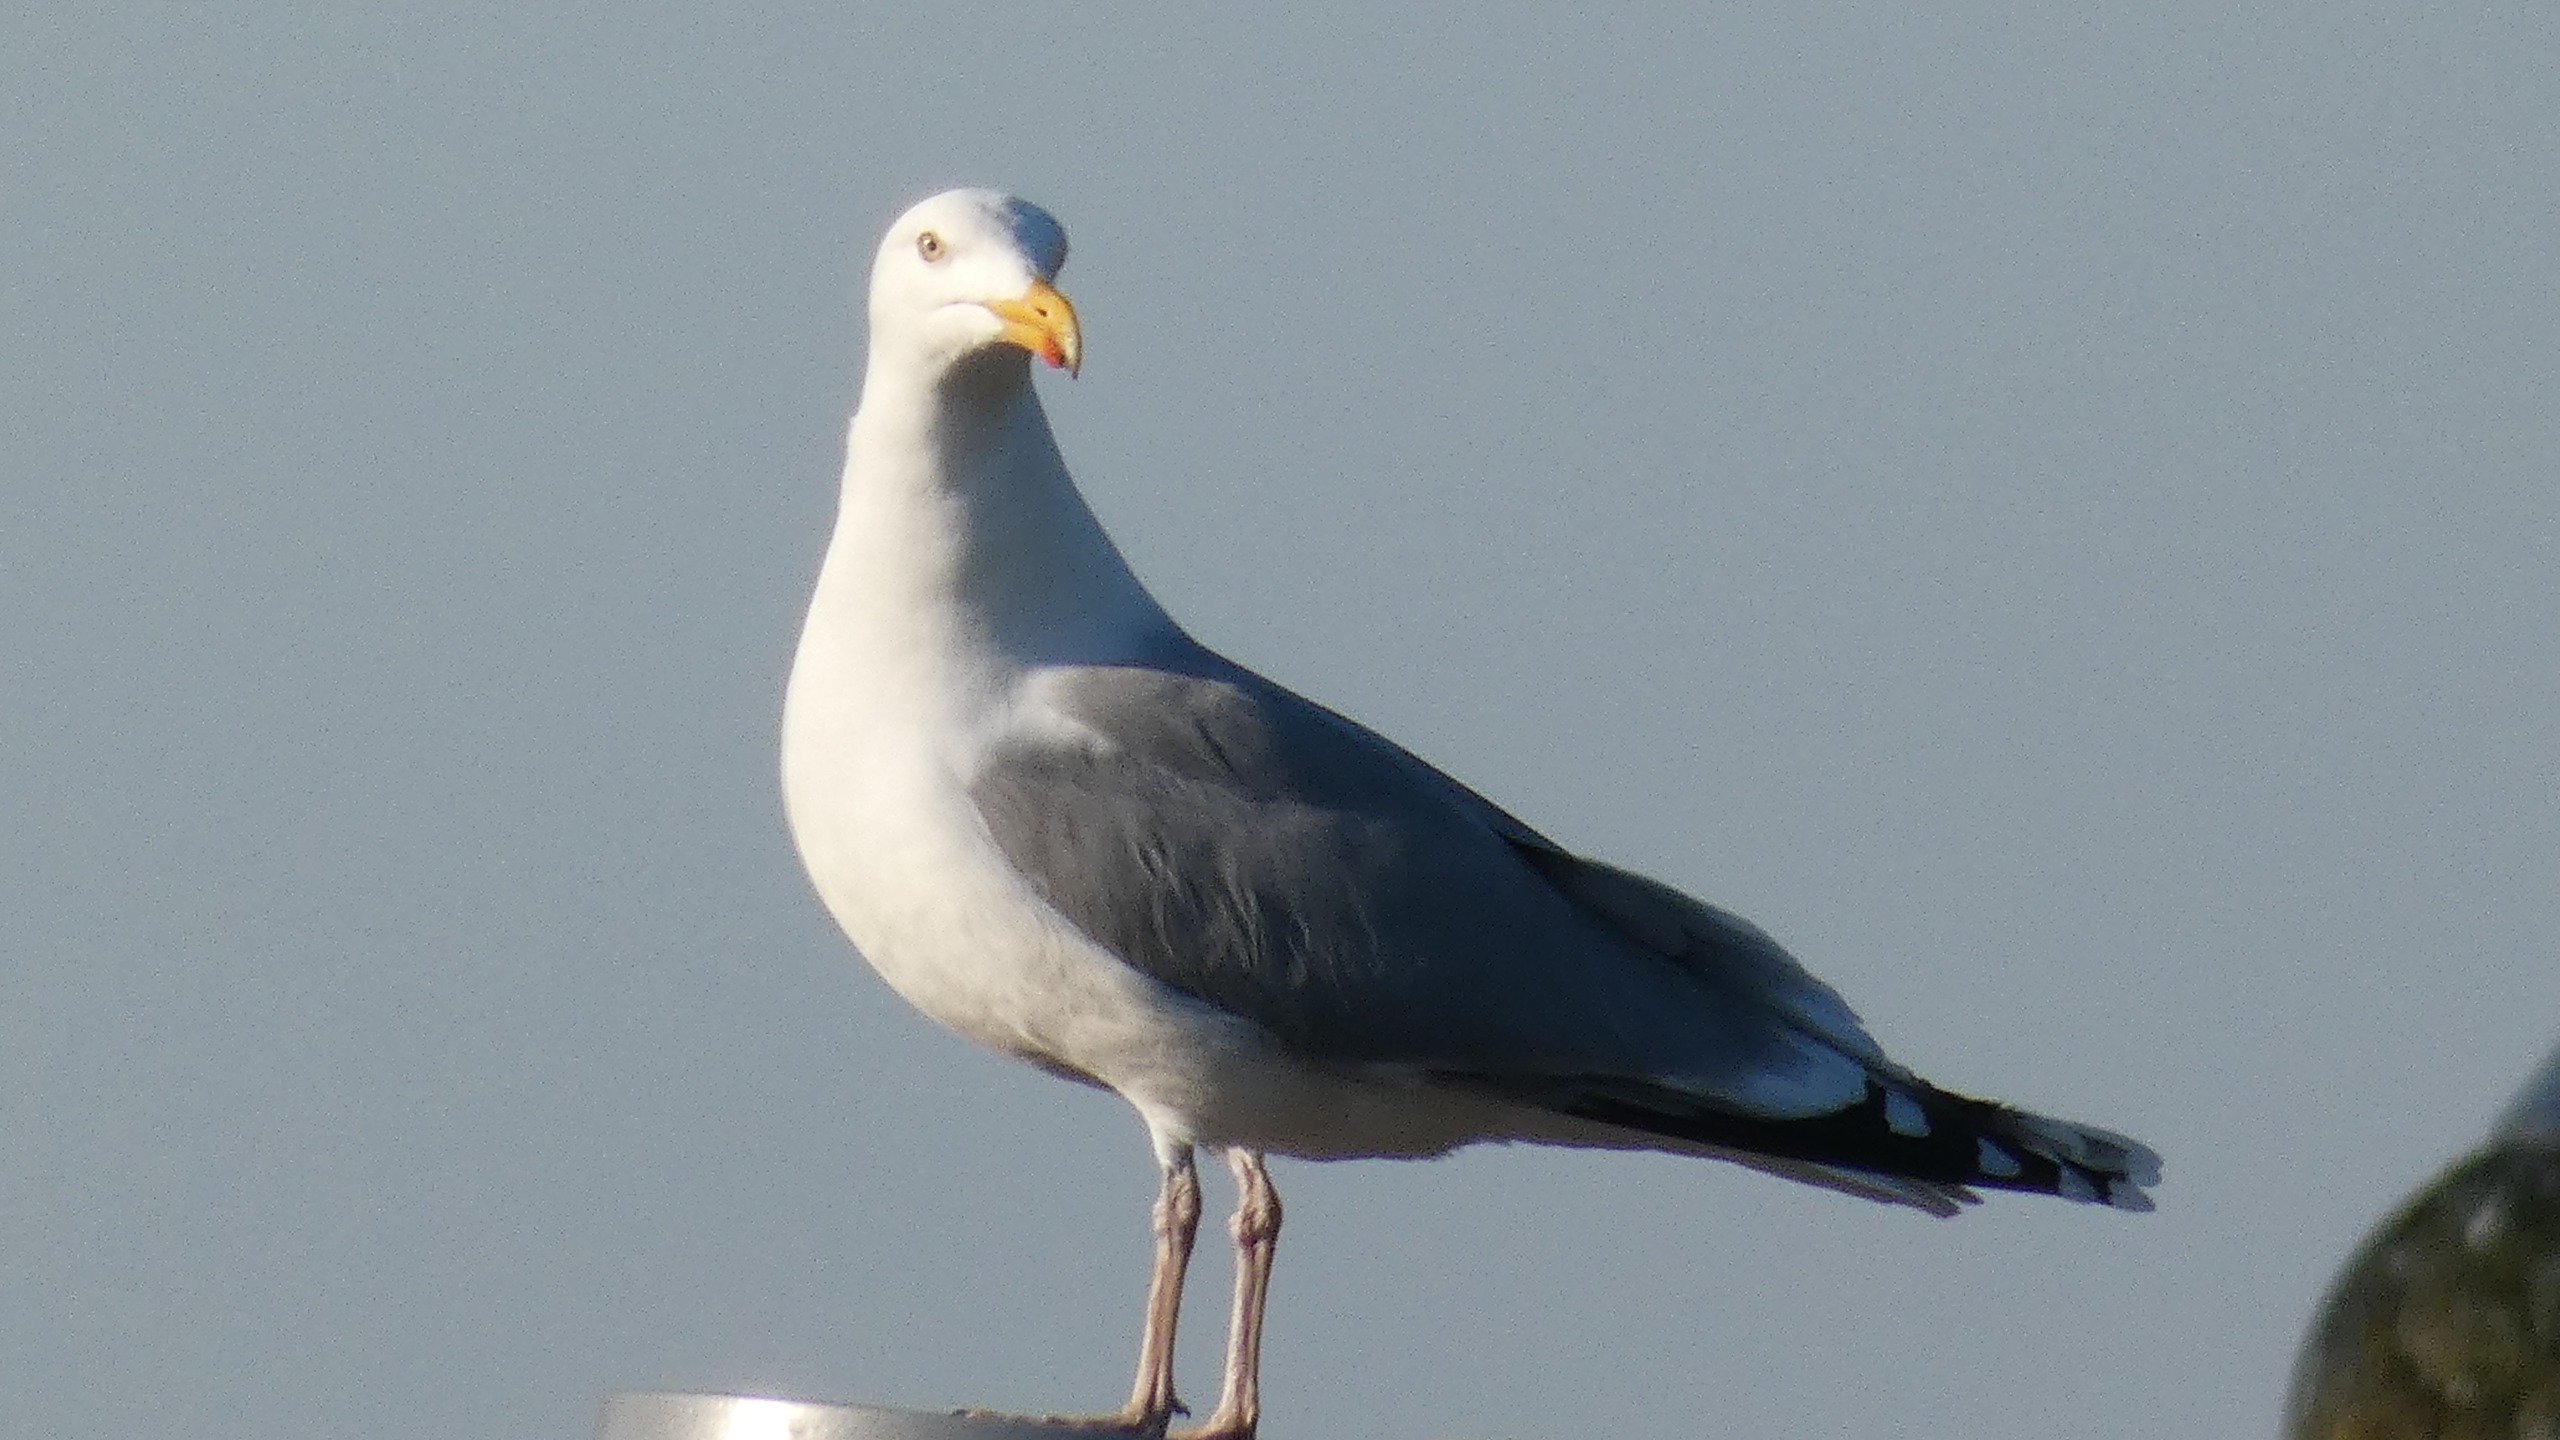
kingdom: Animalia
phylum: Chordata
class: Aves
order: Charadriiformes
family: Laridae
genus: Larus
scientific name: Larus argentatus
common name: Sølvmåge
